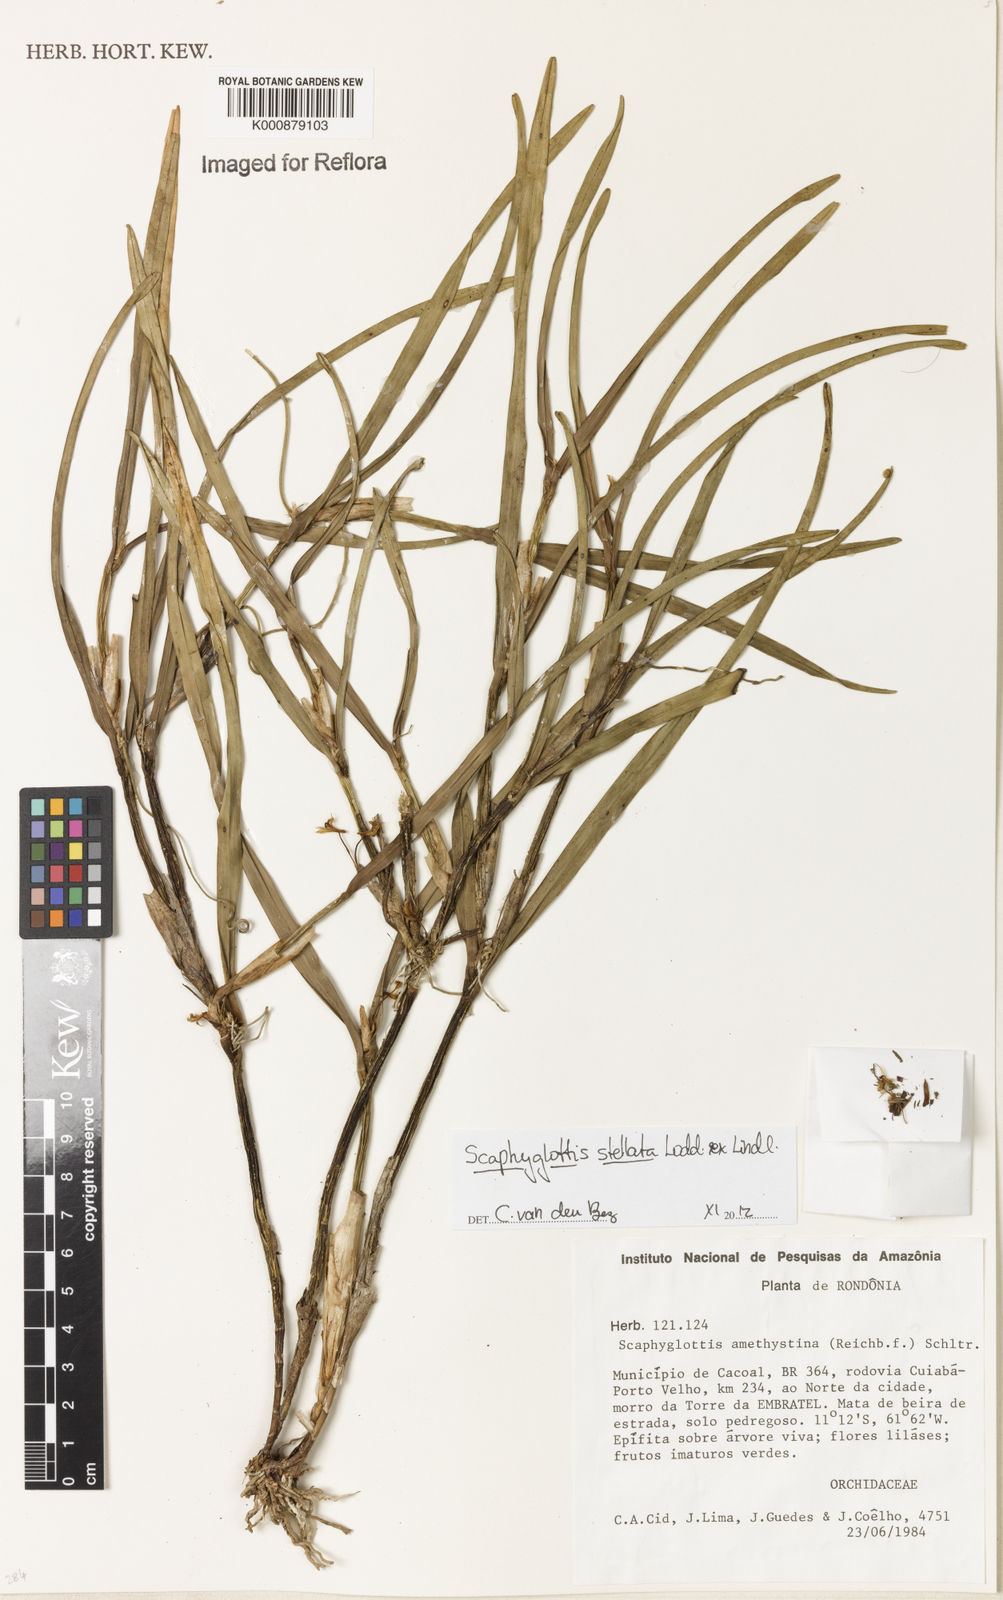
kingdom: Plantae
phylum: Tracheophyta
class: Liliopsida
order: Asparagales
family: Orchidaceae
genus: Scaphyglottis
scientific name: Scaphyglottis stellata
